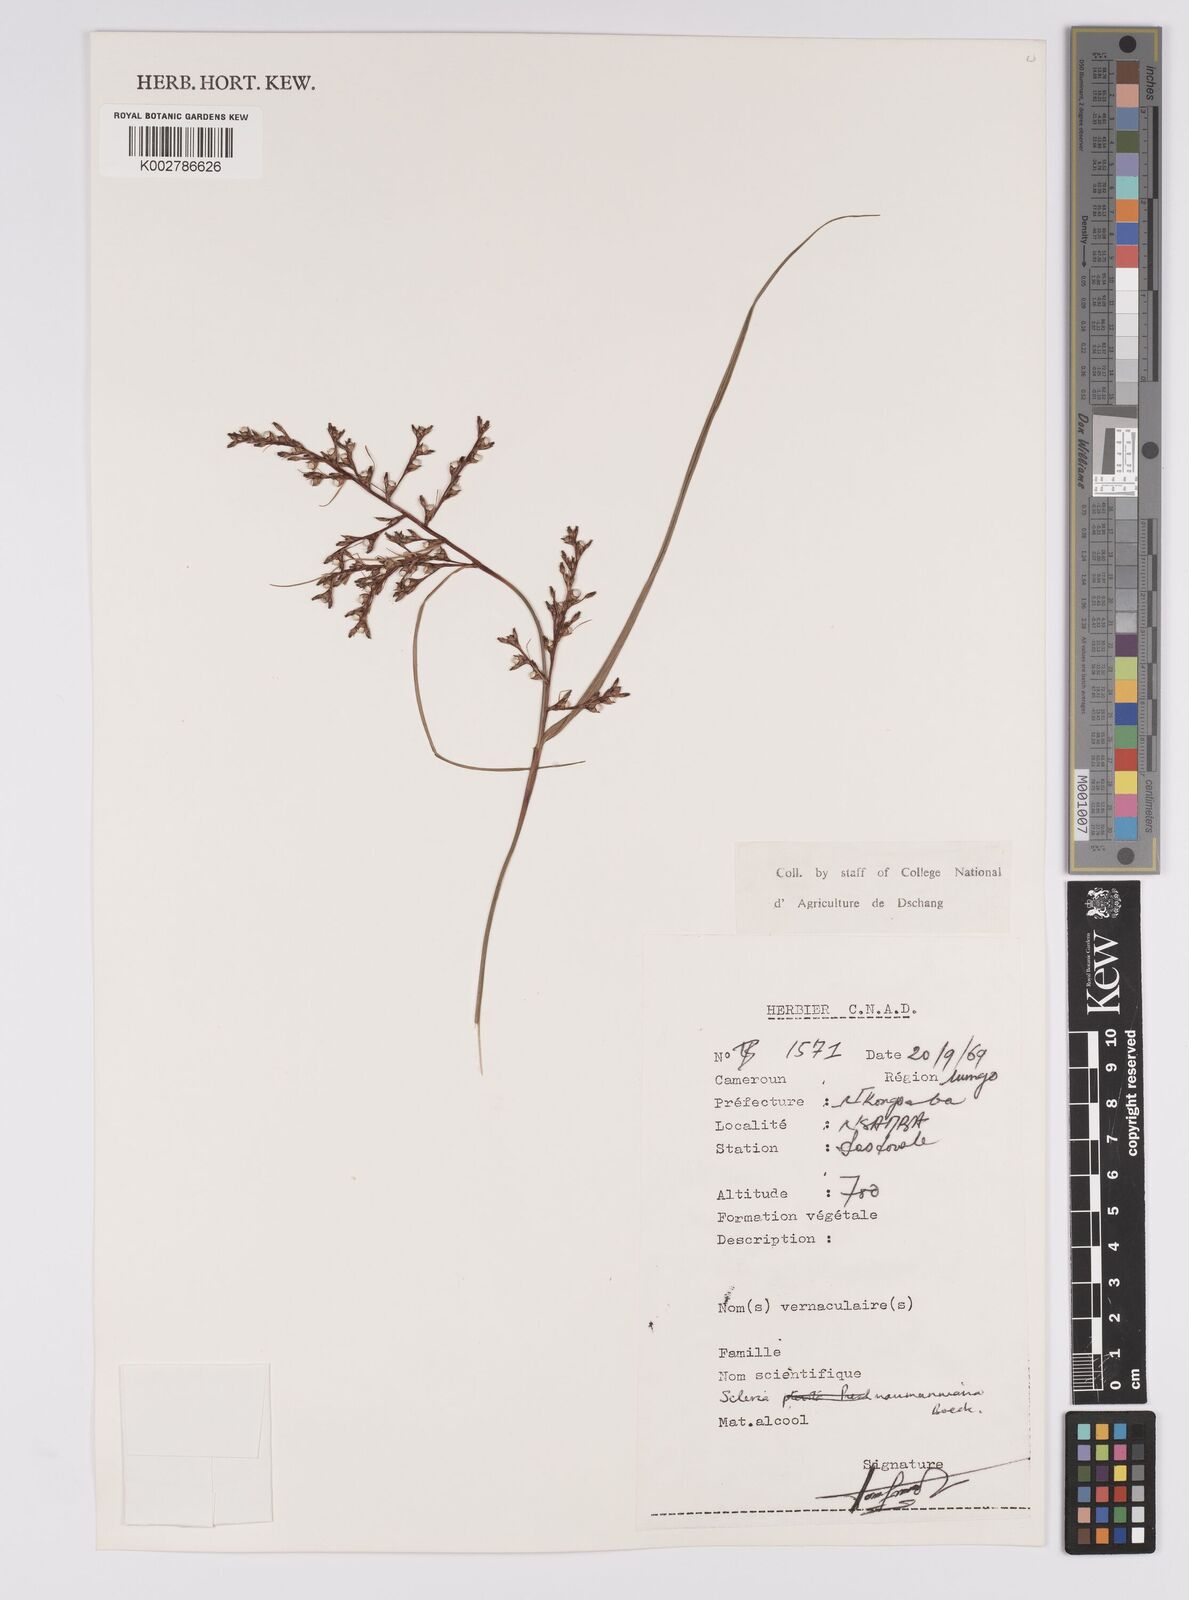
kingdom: Plantae
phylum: Tracheophyta
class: Liliopsida
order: Poales
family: Cyperaceae
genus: Scleria
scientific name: Scleria naumanniana
